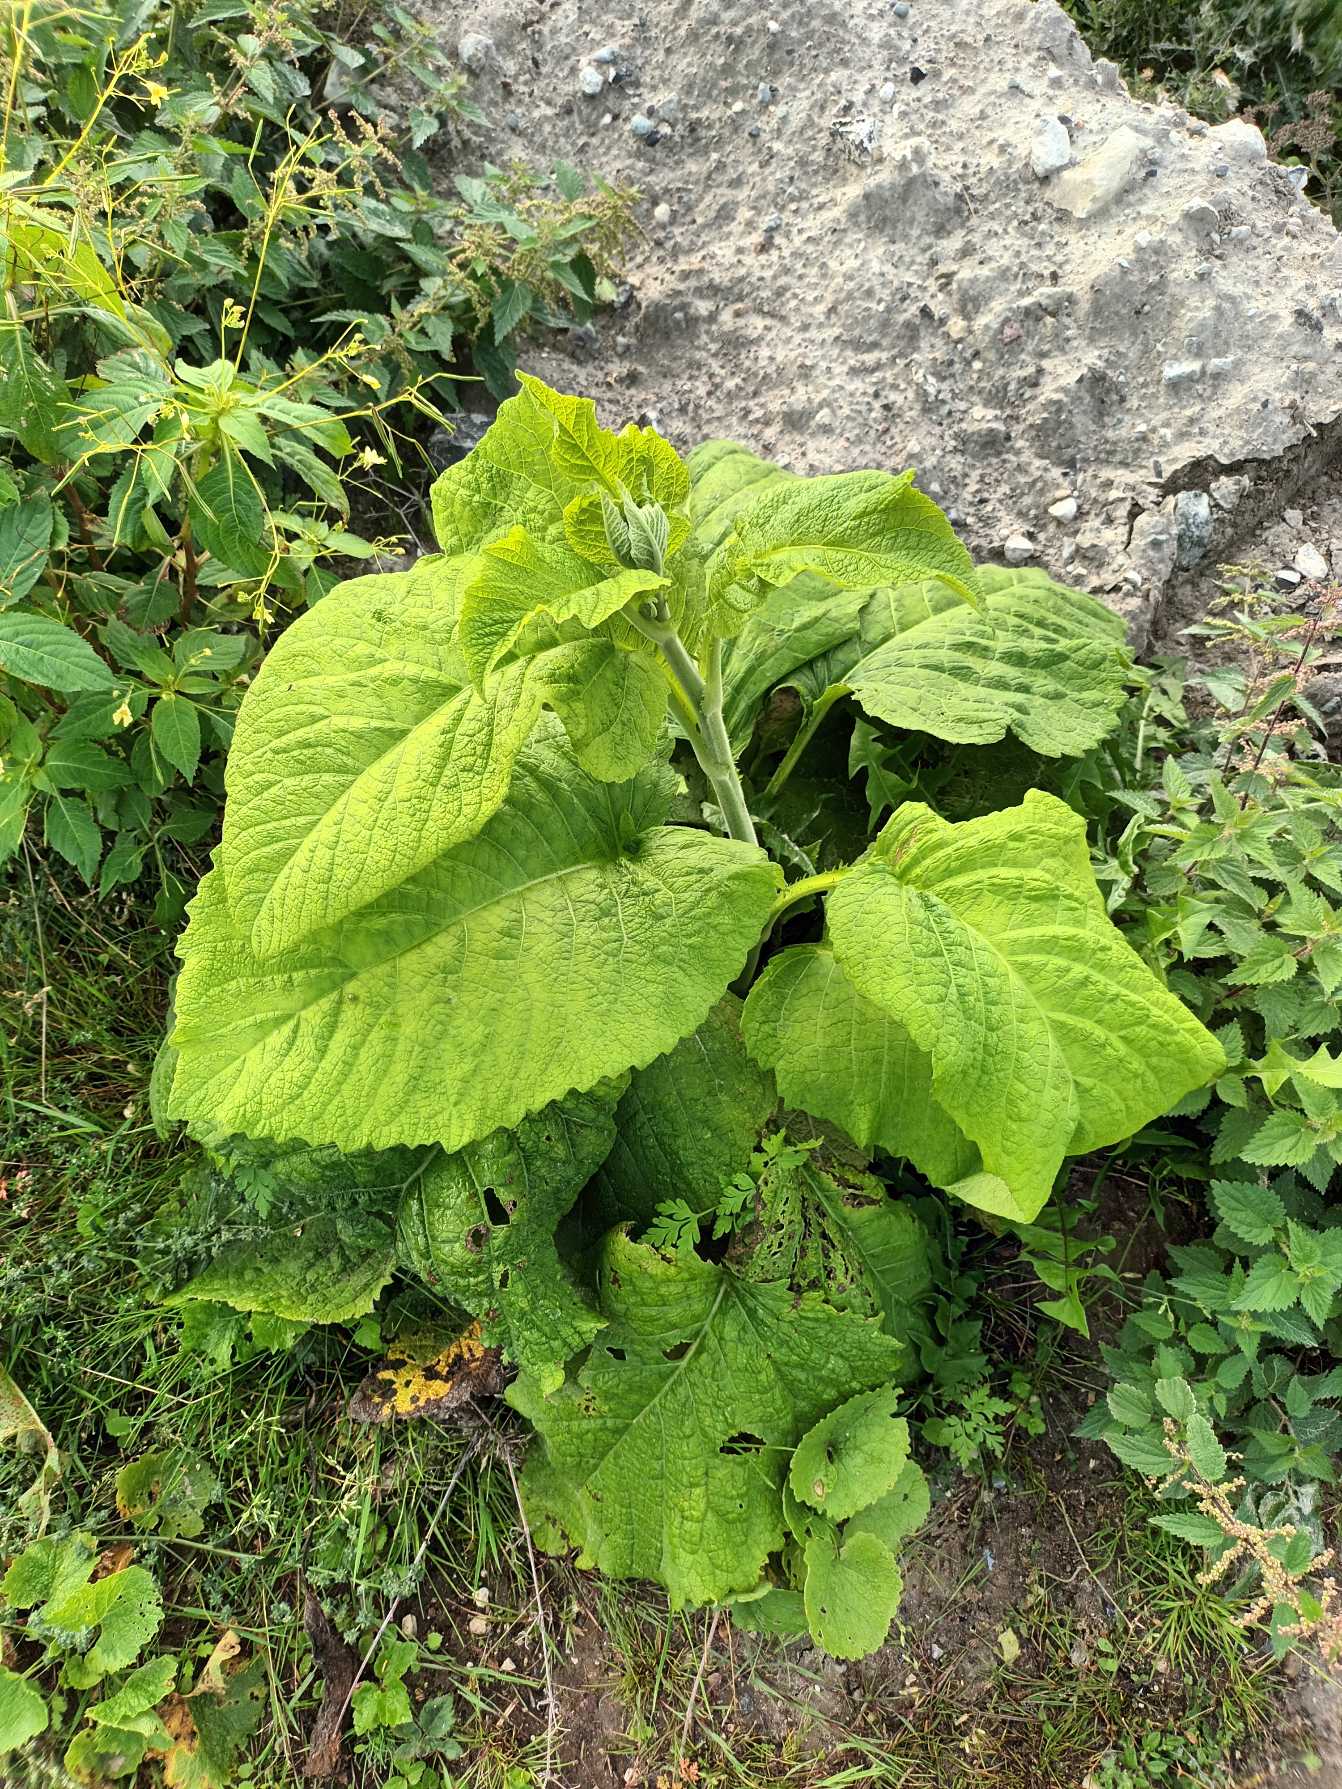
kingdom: Plantae
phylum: Tracheophyta
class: Magnoliopsida
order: Asterales
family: Asteraceae
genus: Telekia
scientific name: Telekia speciosa
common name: Tusindstråle
